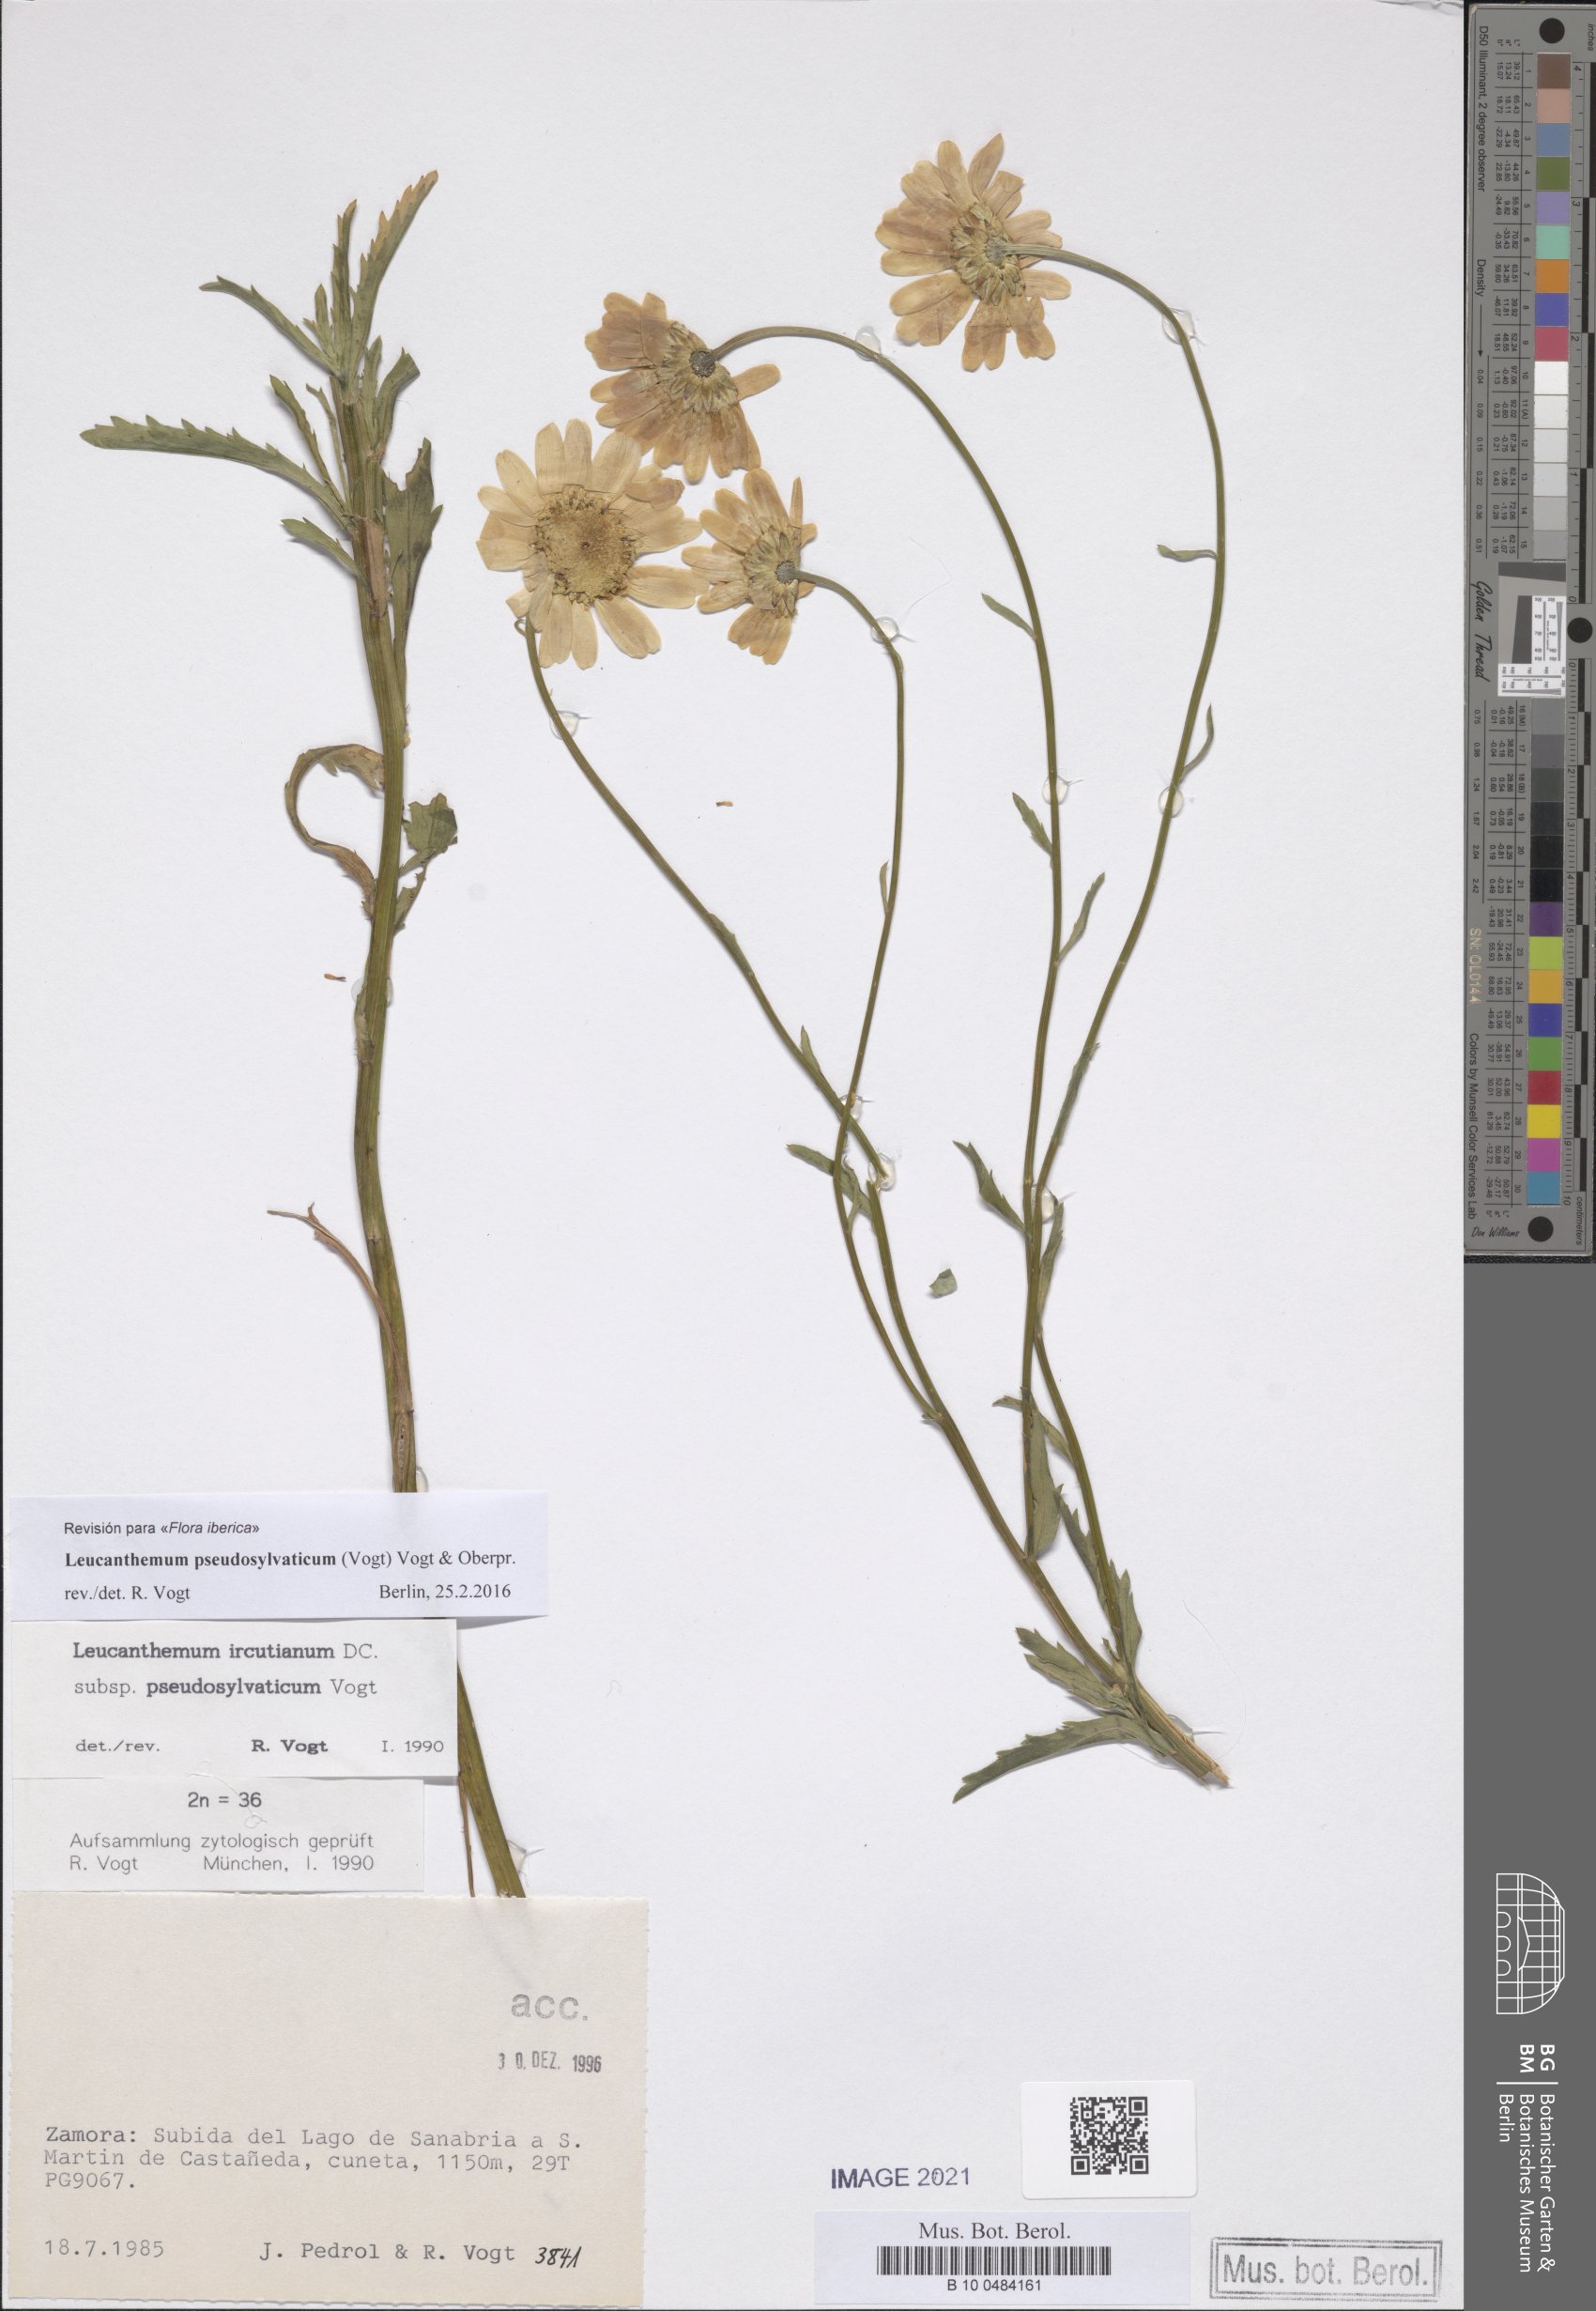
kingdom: Plantae
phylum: Tracheophyta
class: Magnoliopsida
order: Asterales
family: Asteraceae
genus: Leucanthemum
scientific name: Leucanthemum pseudosylvaticum
